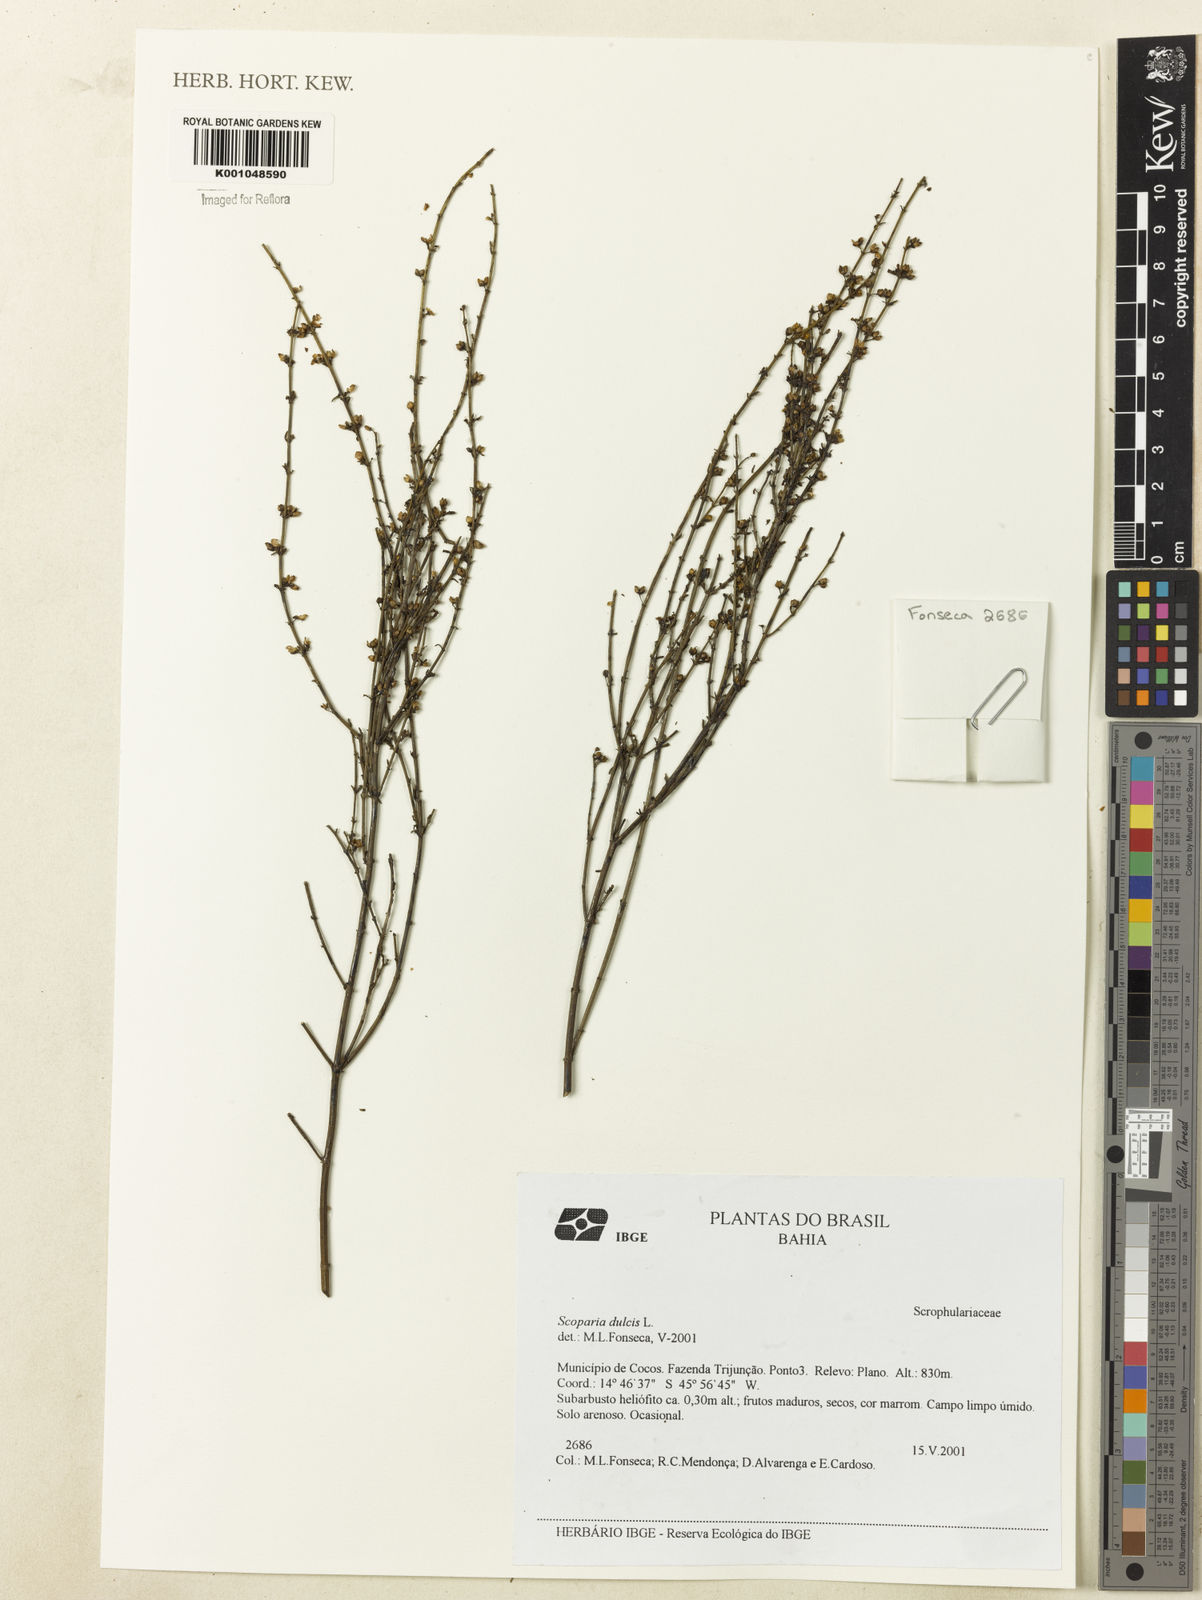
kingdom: Plantae
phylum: Tracheophyta
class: Magnoliopsida
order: Lamiales
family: Plantaginaceae
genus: Scoparia
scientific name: Scoparia dulcis
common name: Scoparia-weed
